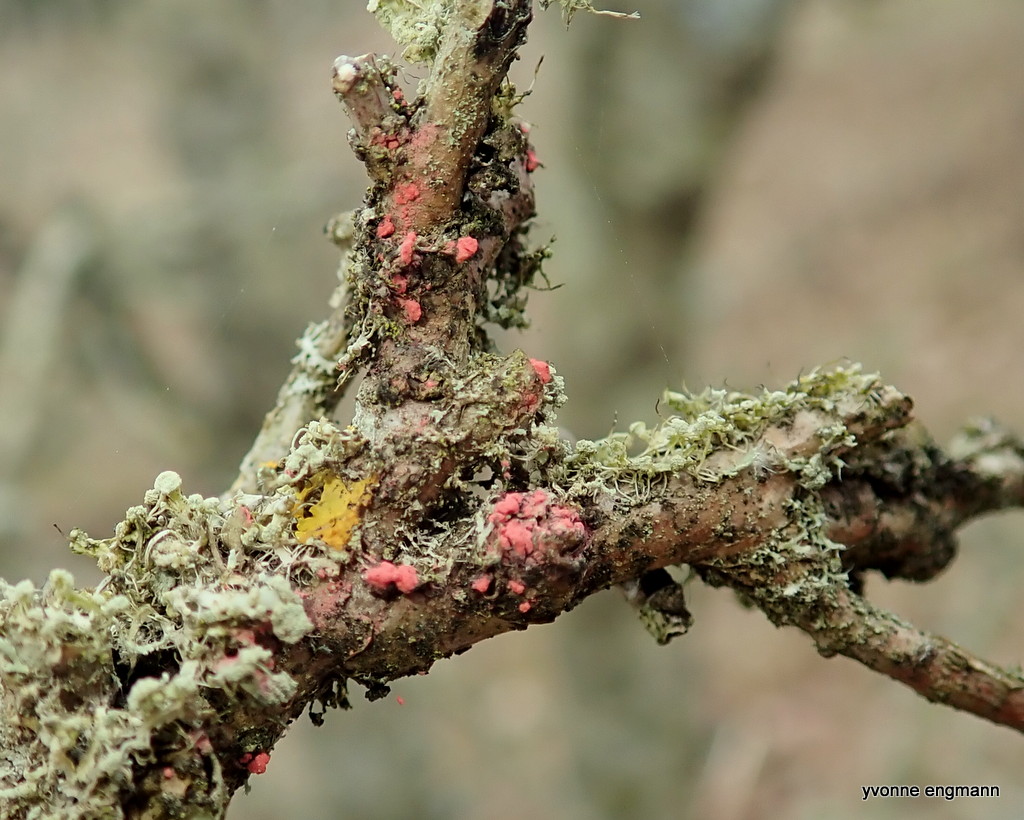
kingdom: Fungi
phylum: Ascomycota
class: Sordariomycetes
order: Hypocreales
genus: Illosporiopsis
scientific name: Illosporiopsis christiansenii
